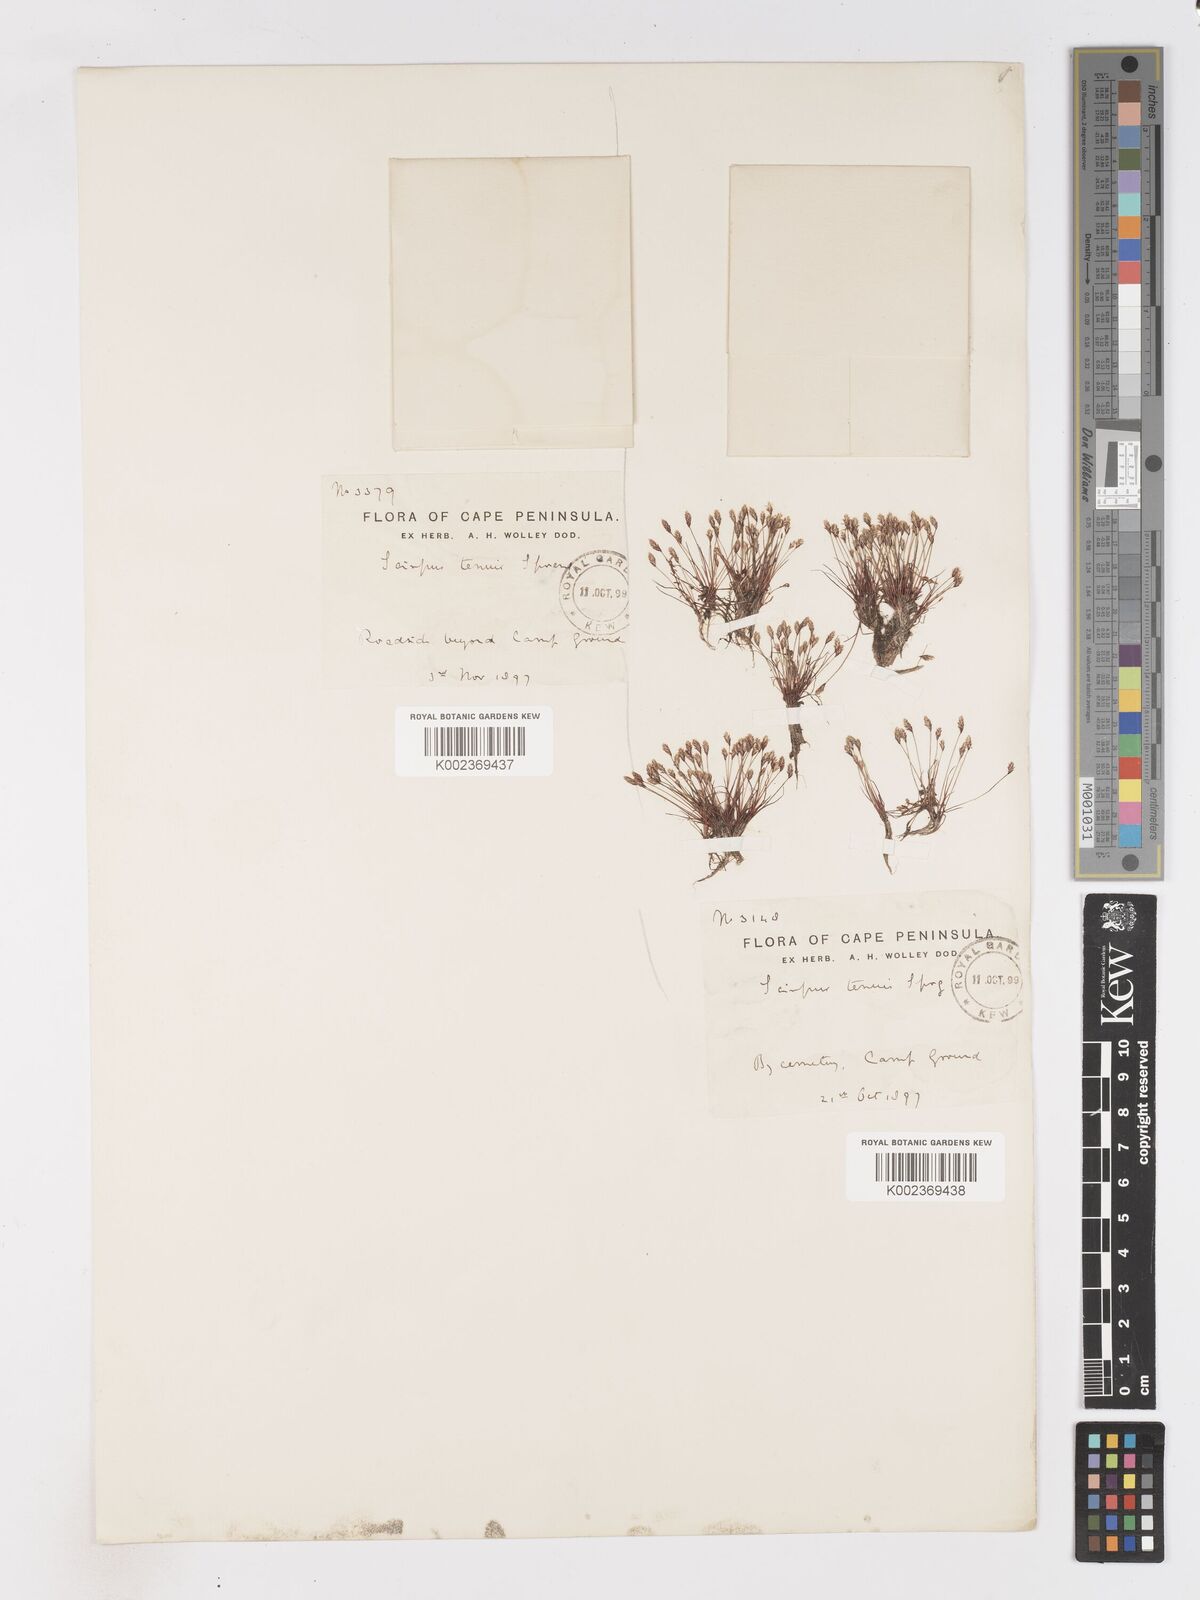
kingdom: Plantae
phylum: Tracheophyta
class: Liliopsida
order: Poales
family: Cyperaceae
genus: Isolepis
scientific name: Isolepis tenuissima
